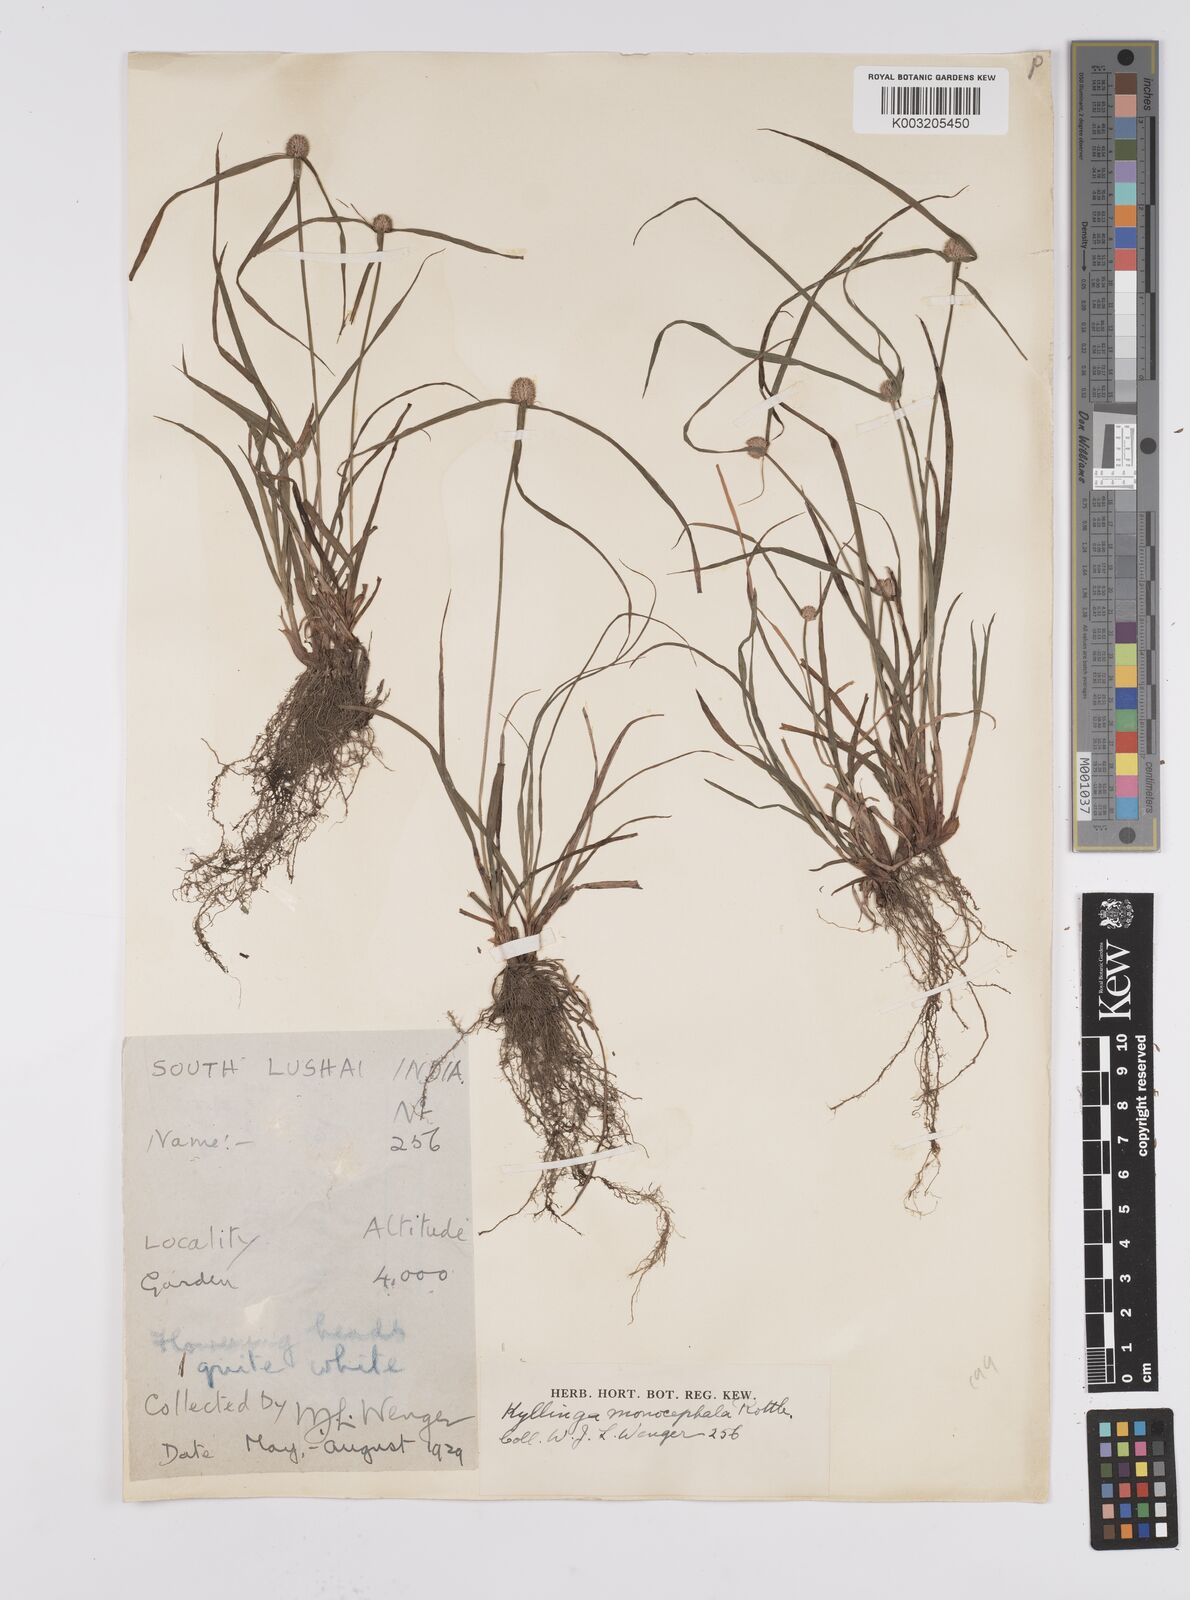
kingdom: Plantae
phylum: Tracheophyta
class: Liliopsida
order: Poales
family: Cyperaceae
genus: Cyperus
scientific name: Cyperus nemoralis
